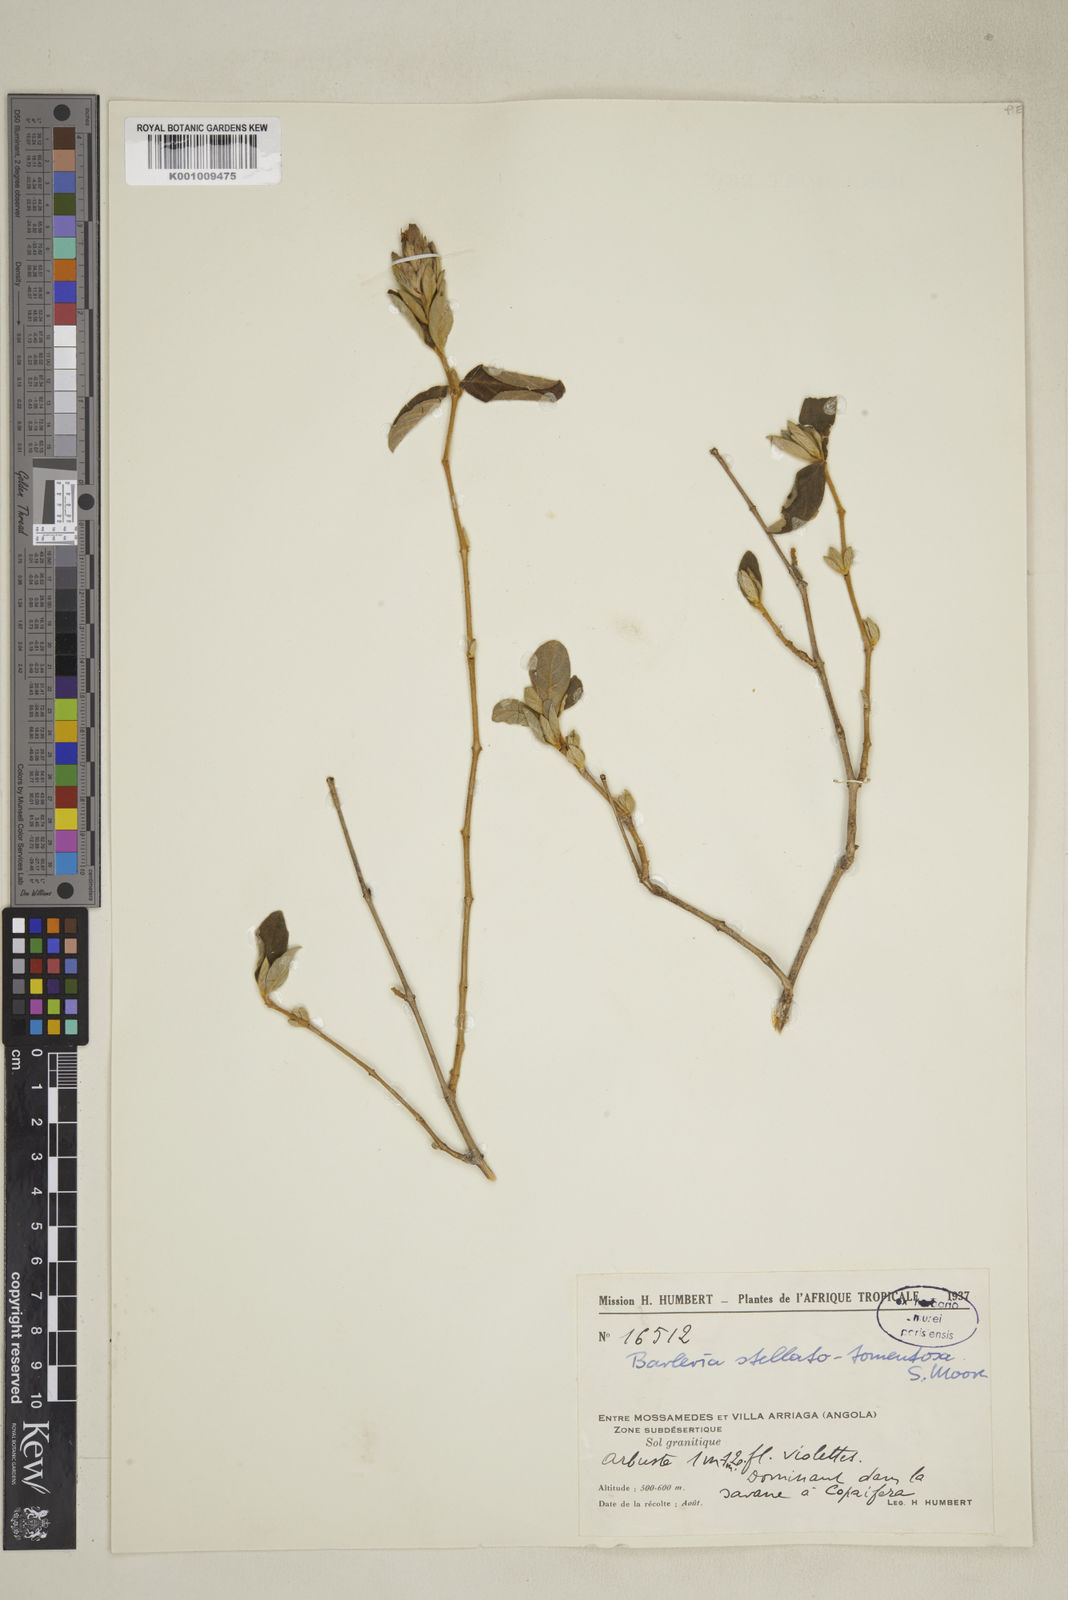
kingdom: Plantae
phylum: Tracheophyta
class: Magnoliopsida
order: Lamiales
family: Acanthaceae
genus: Barleria
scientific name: Barleria taitensis
